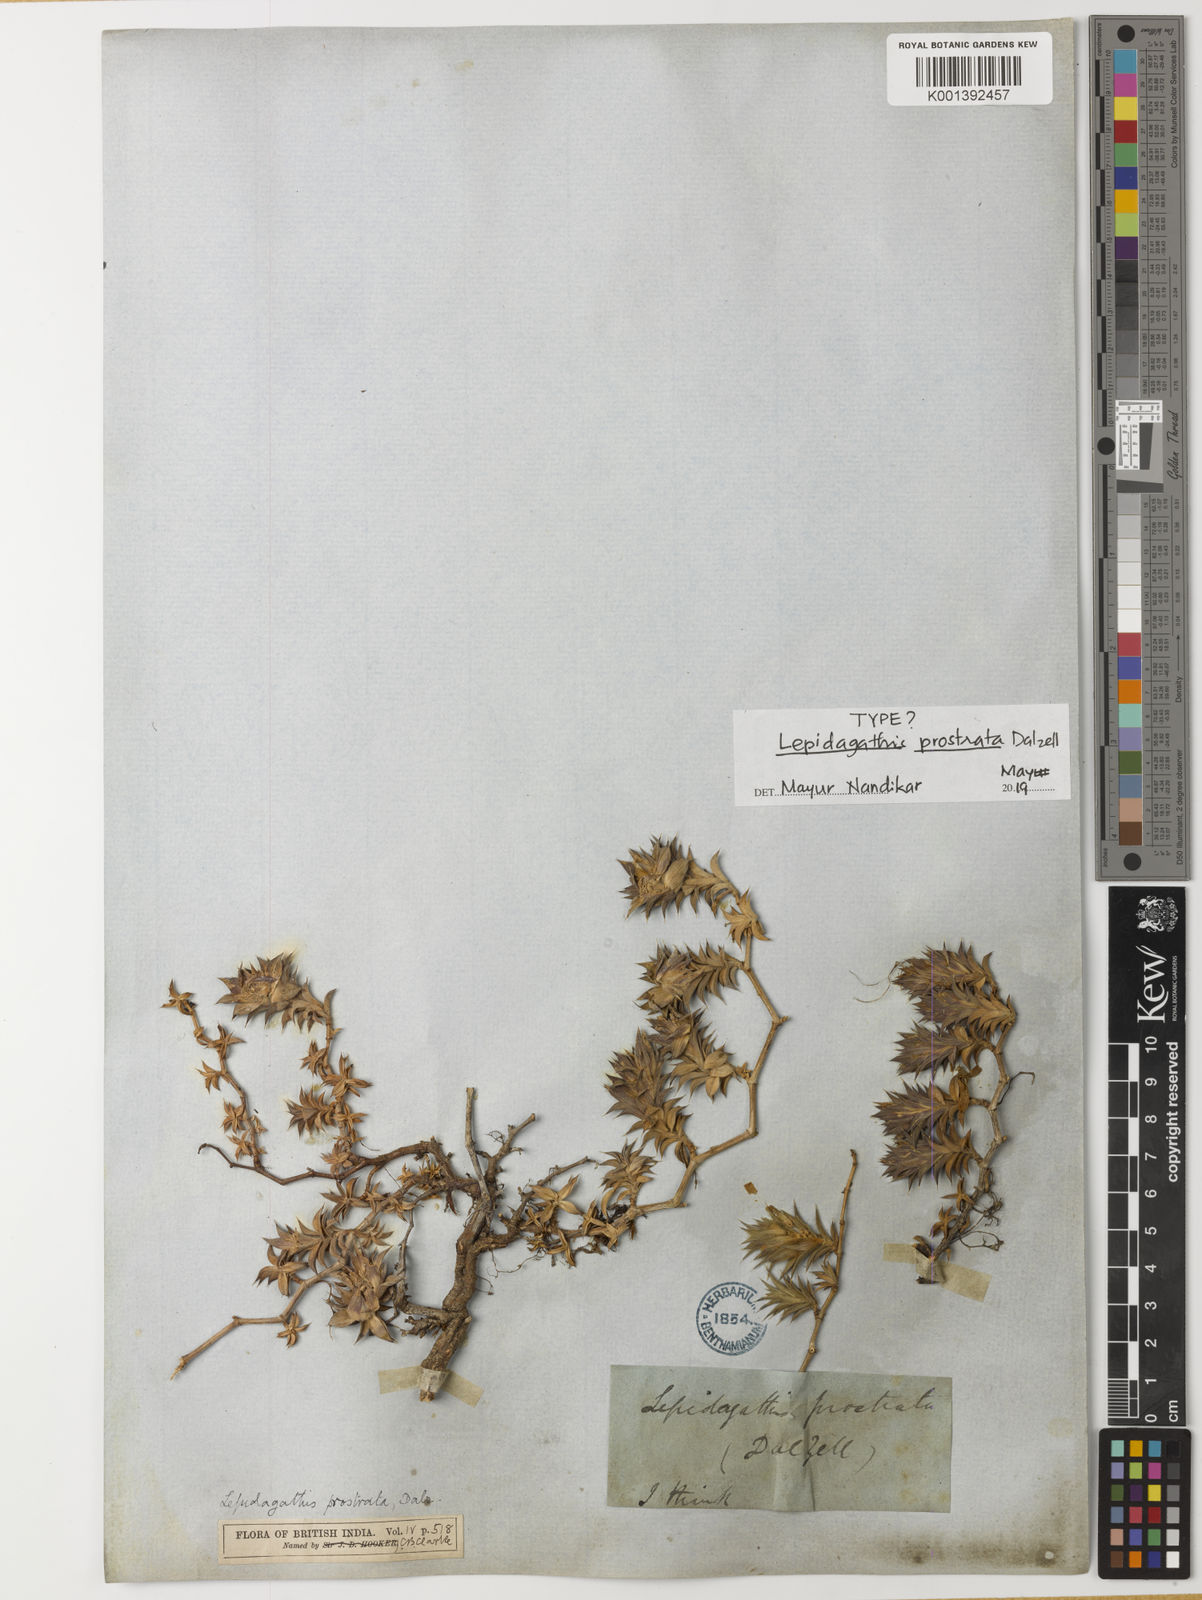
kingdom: Plantae
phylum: Tracheophyta
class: Magnoliopsida
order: Lamiales
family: Acanthaceae
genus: Lepidagathis
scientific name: Lepidagathis prostrata
